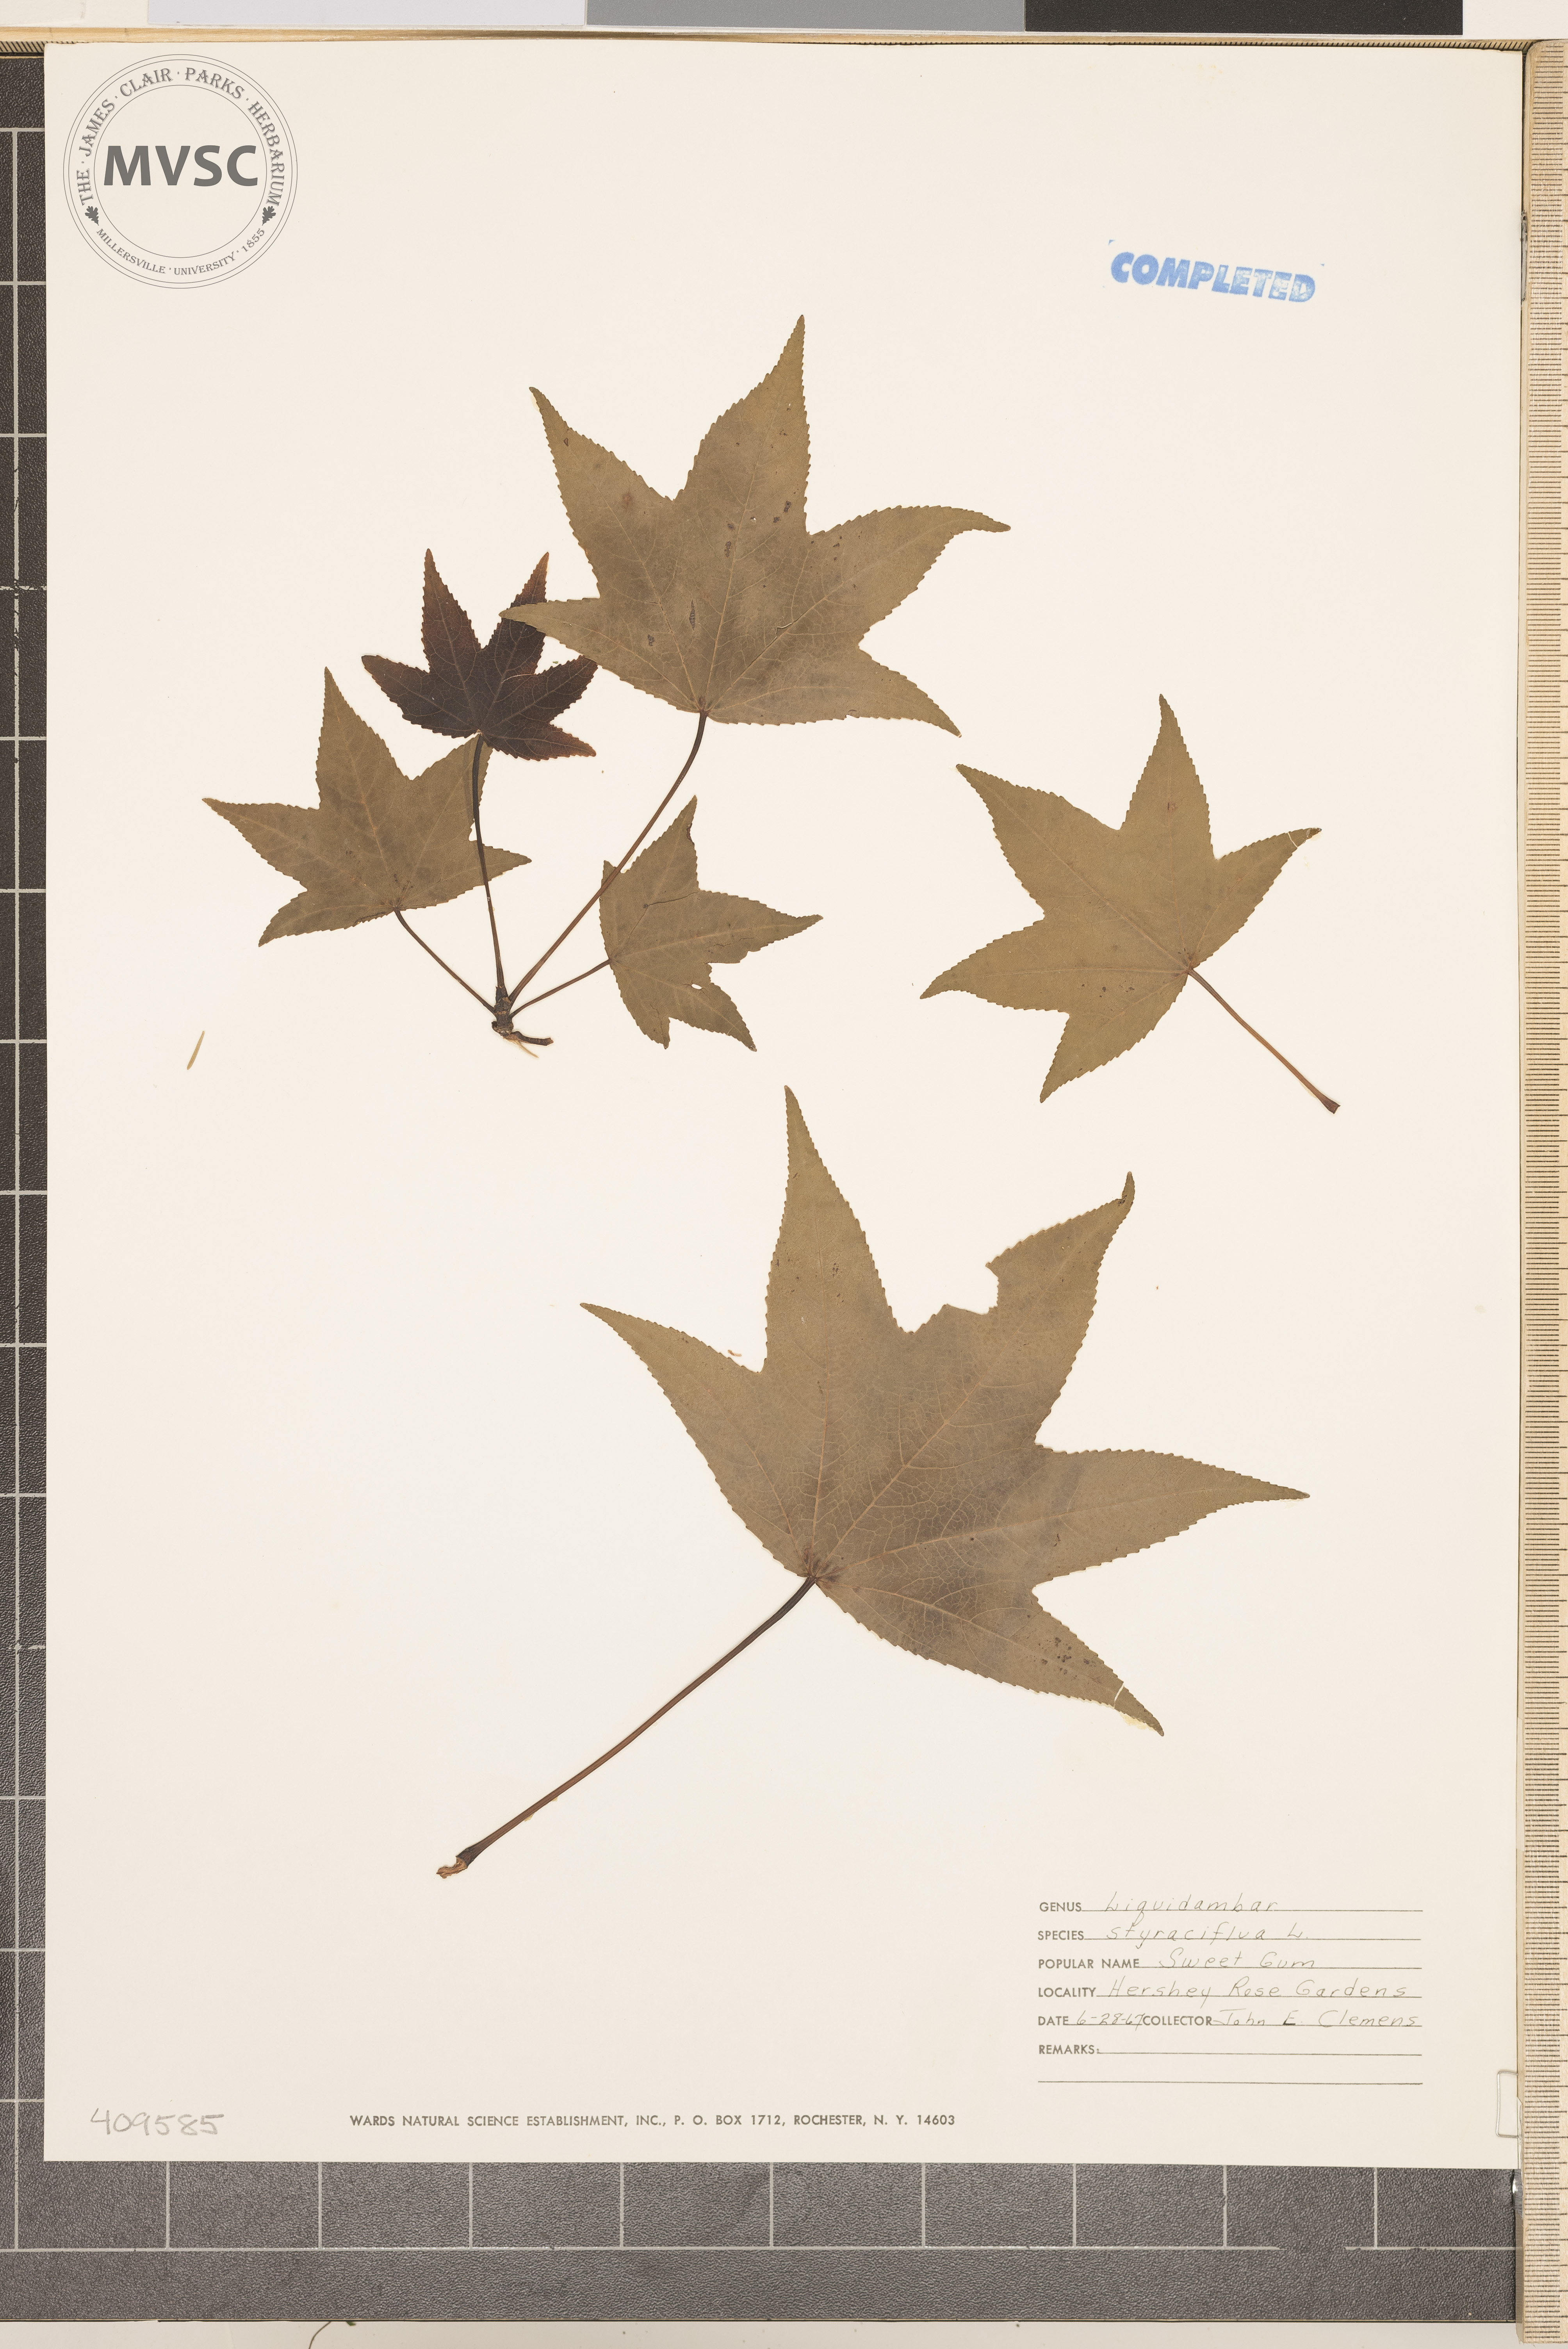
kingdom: Plantae
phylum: Tracheophyta
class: Magnoliopsida
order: Saxifragales
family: Altingiaceae
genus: Liquidambar
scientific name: Liquidambar styraciflua
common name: Sweet gum
